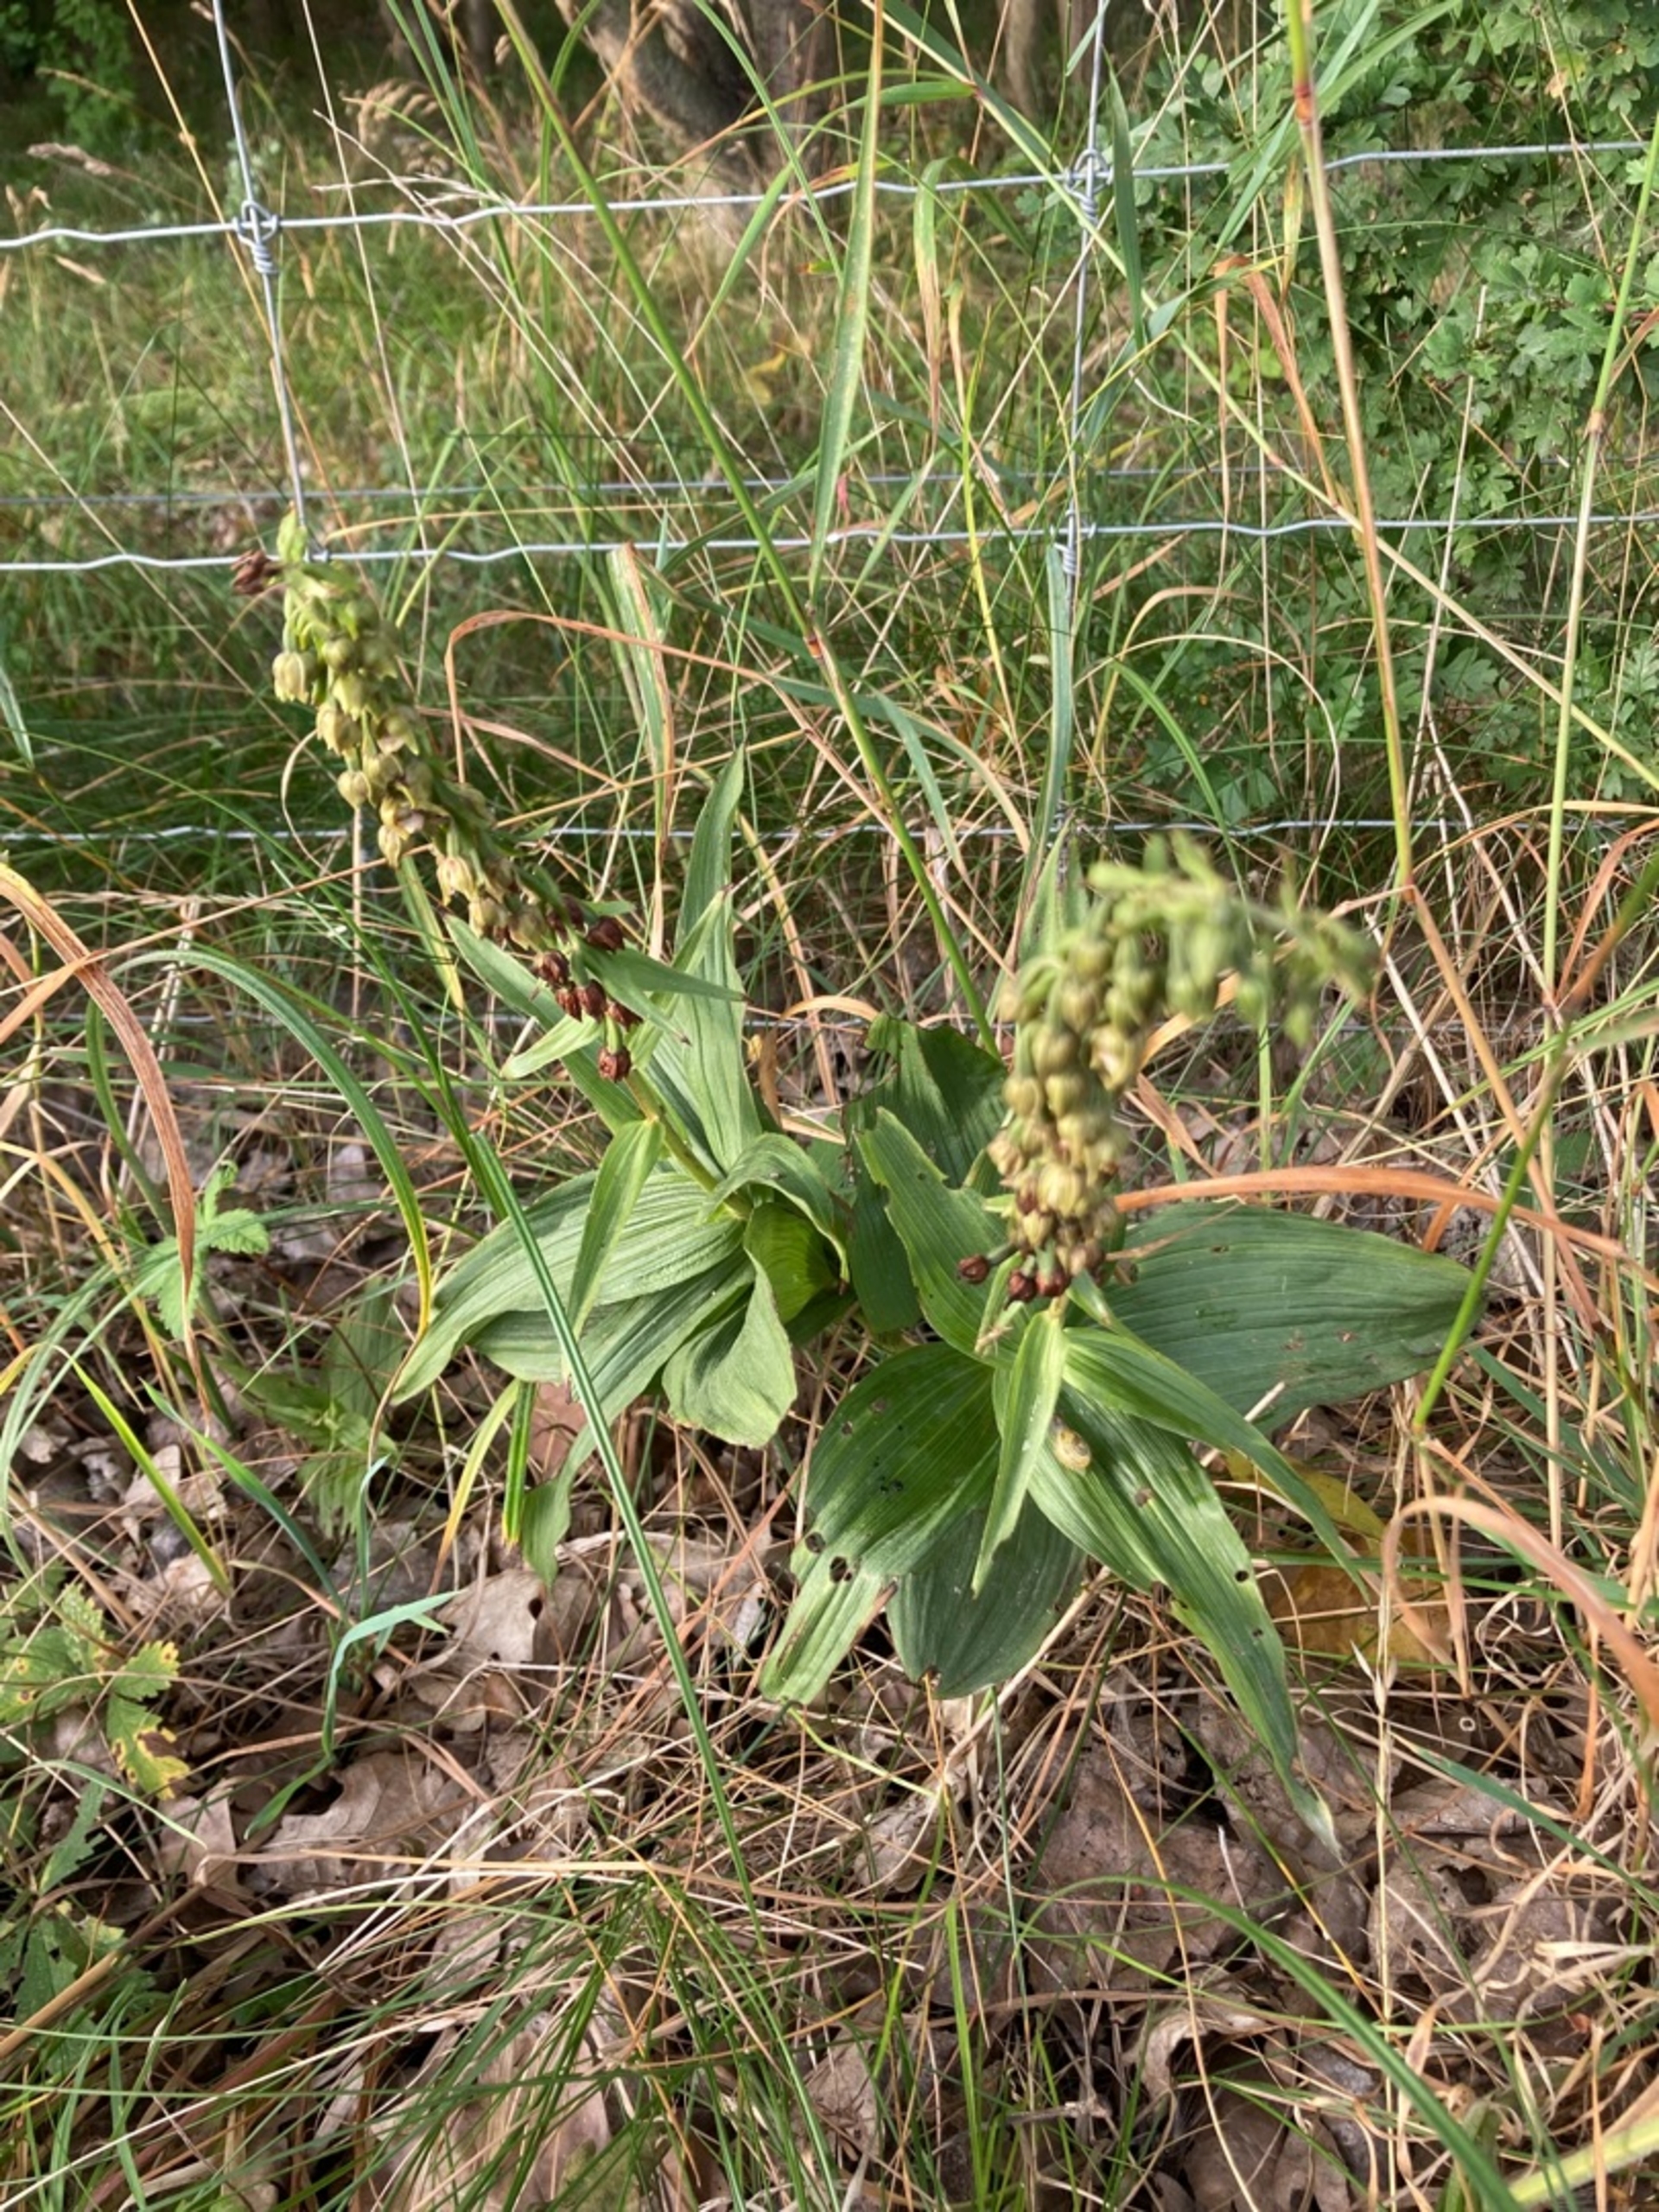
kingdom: Plantae
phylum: Tracheophyta
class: Liliopsida
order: Asparagales
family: Orchidaceae
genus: Epipactis
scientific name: Epipactis helleborine
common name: Skov-hullæbe
